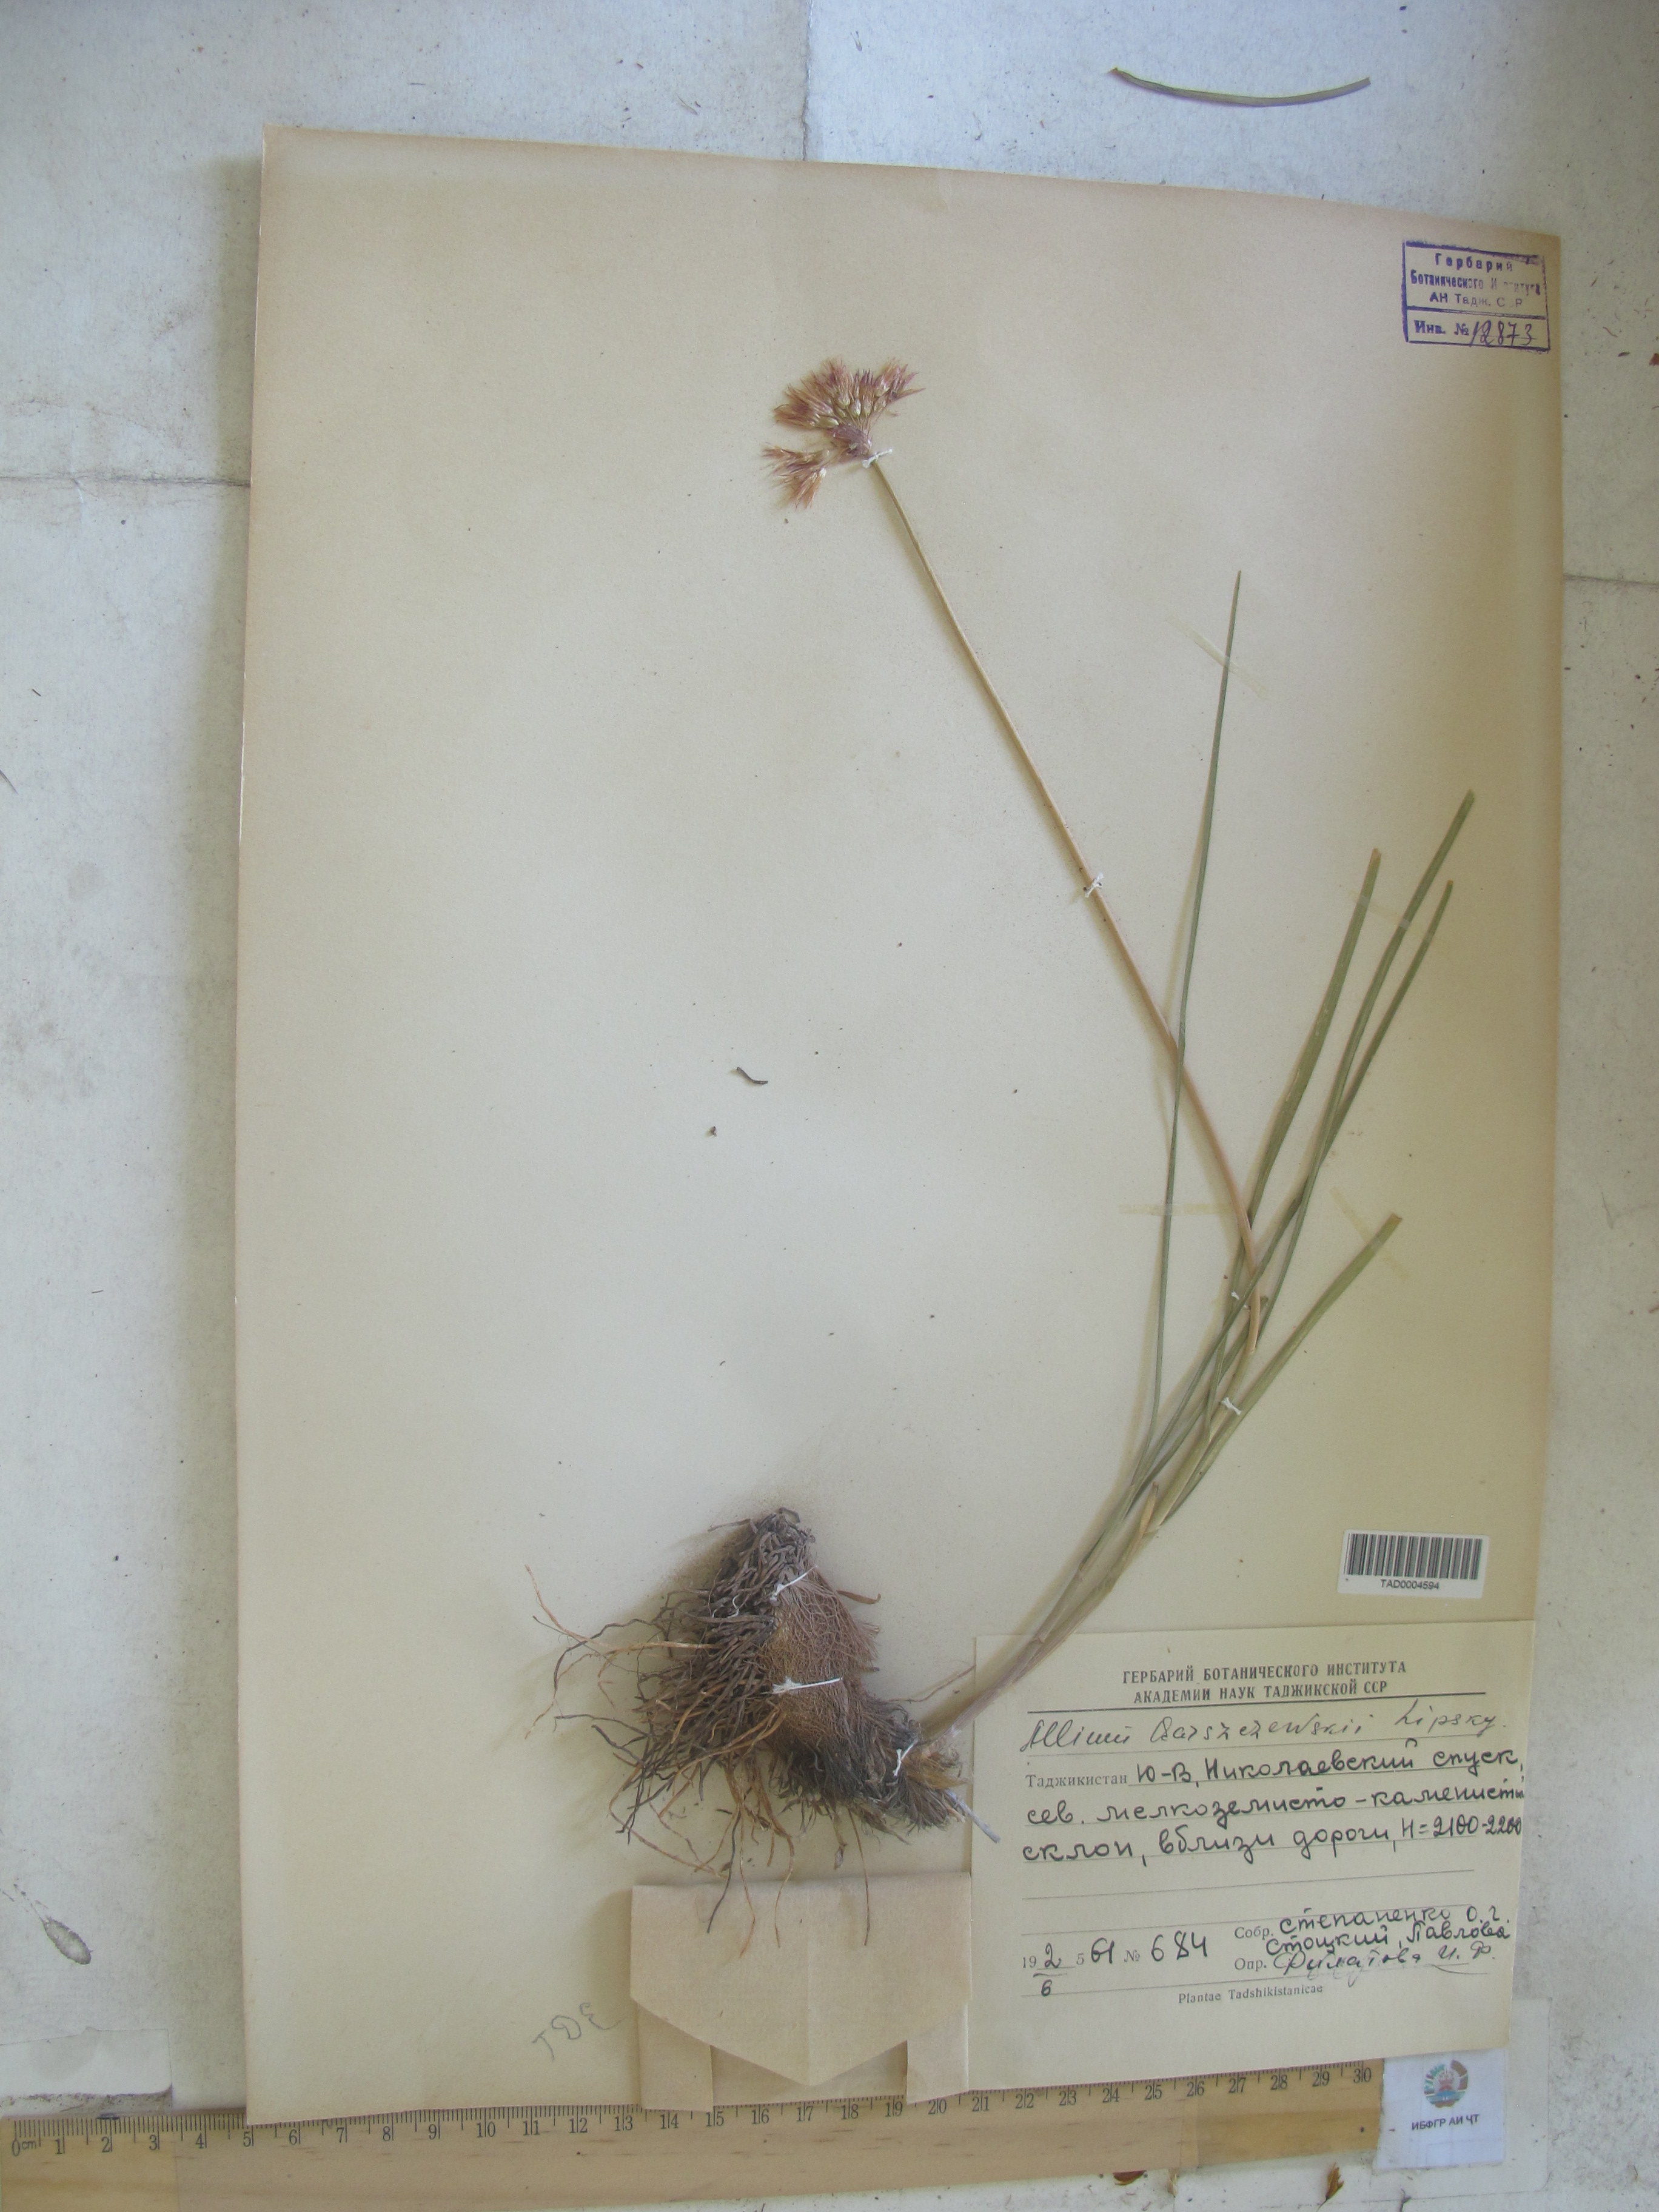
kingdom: Plantae
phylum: Tracheophyta
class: Liliopsida
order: Asparagales
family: Amaryllidaceae
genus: Allium
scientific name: Allium barsczewskii
